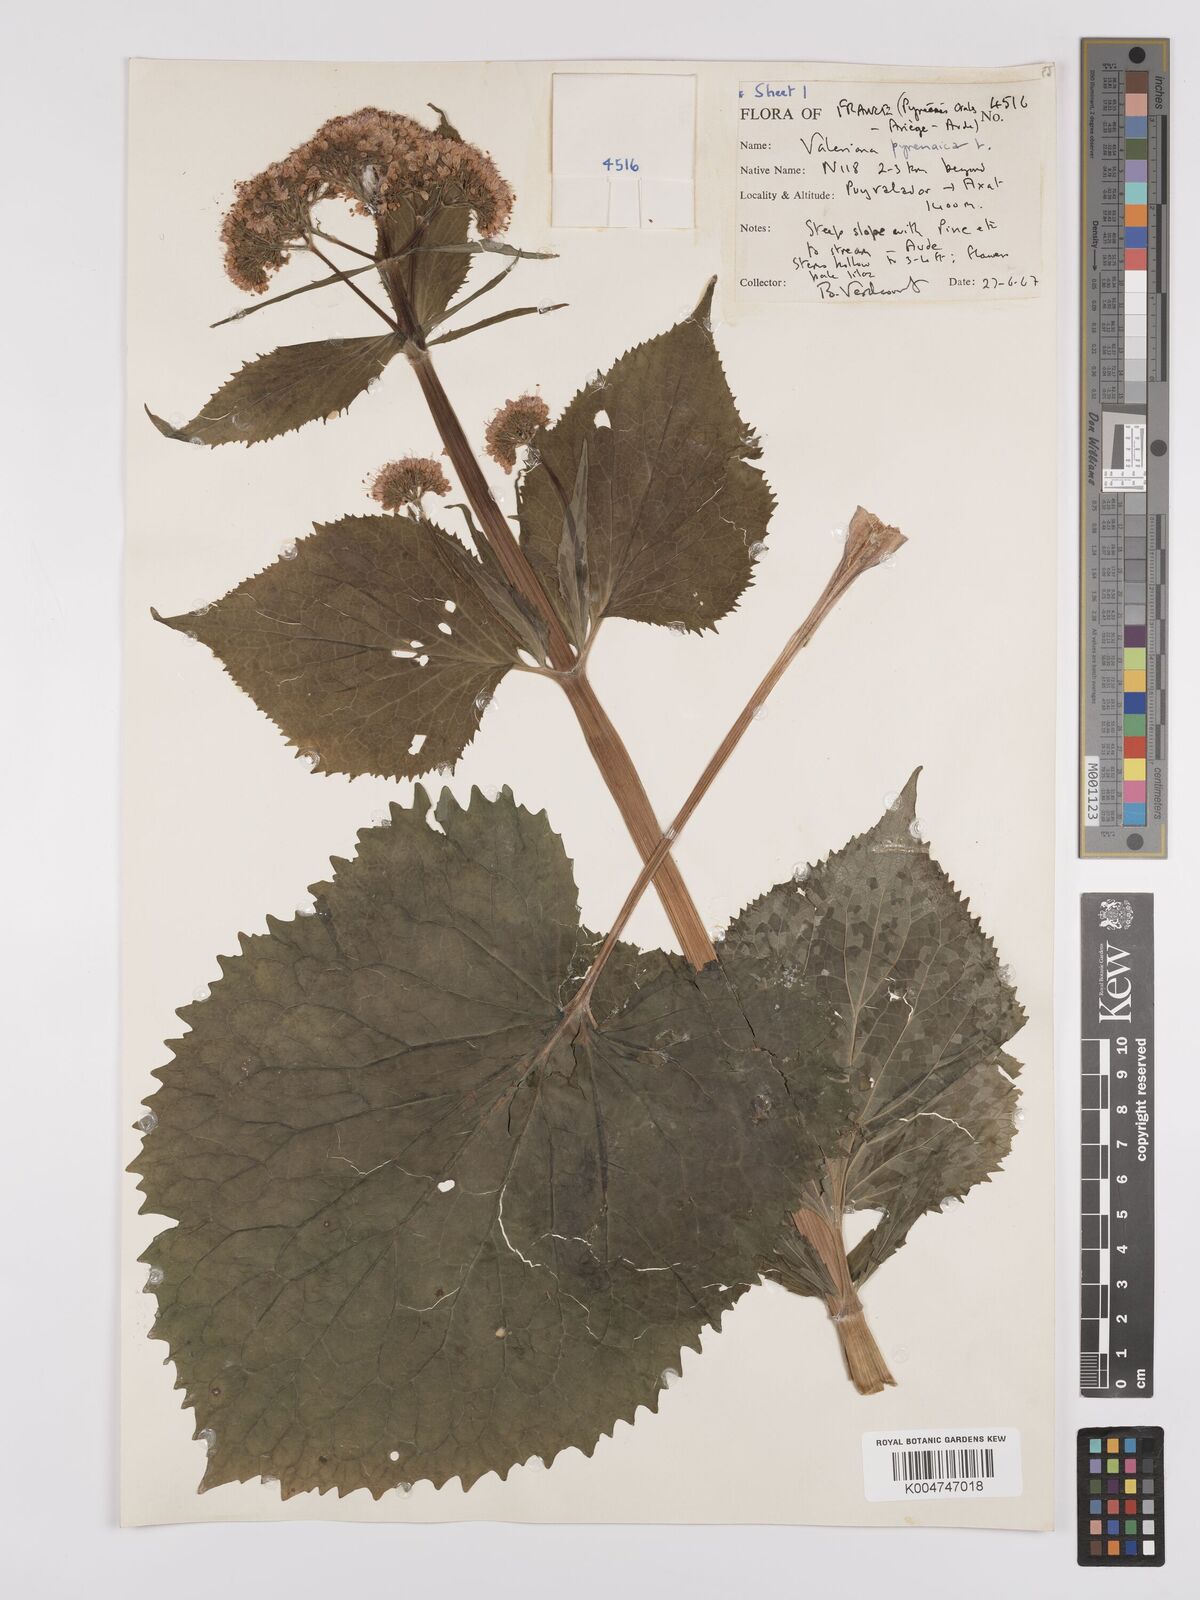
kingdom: Plantae
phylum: Tracheophyta
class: Magnoliopsida
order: Dipsacales
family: Caprifoliaceae
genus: Valeriana
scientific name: Valeriana pyrenaica
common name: Pyrenean valerian
